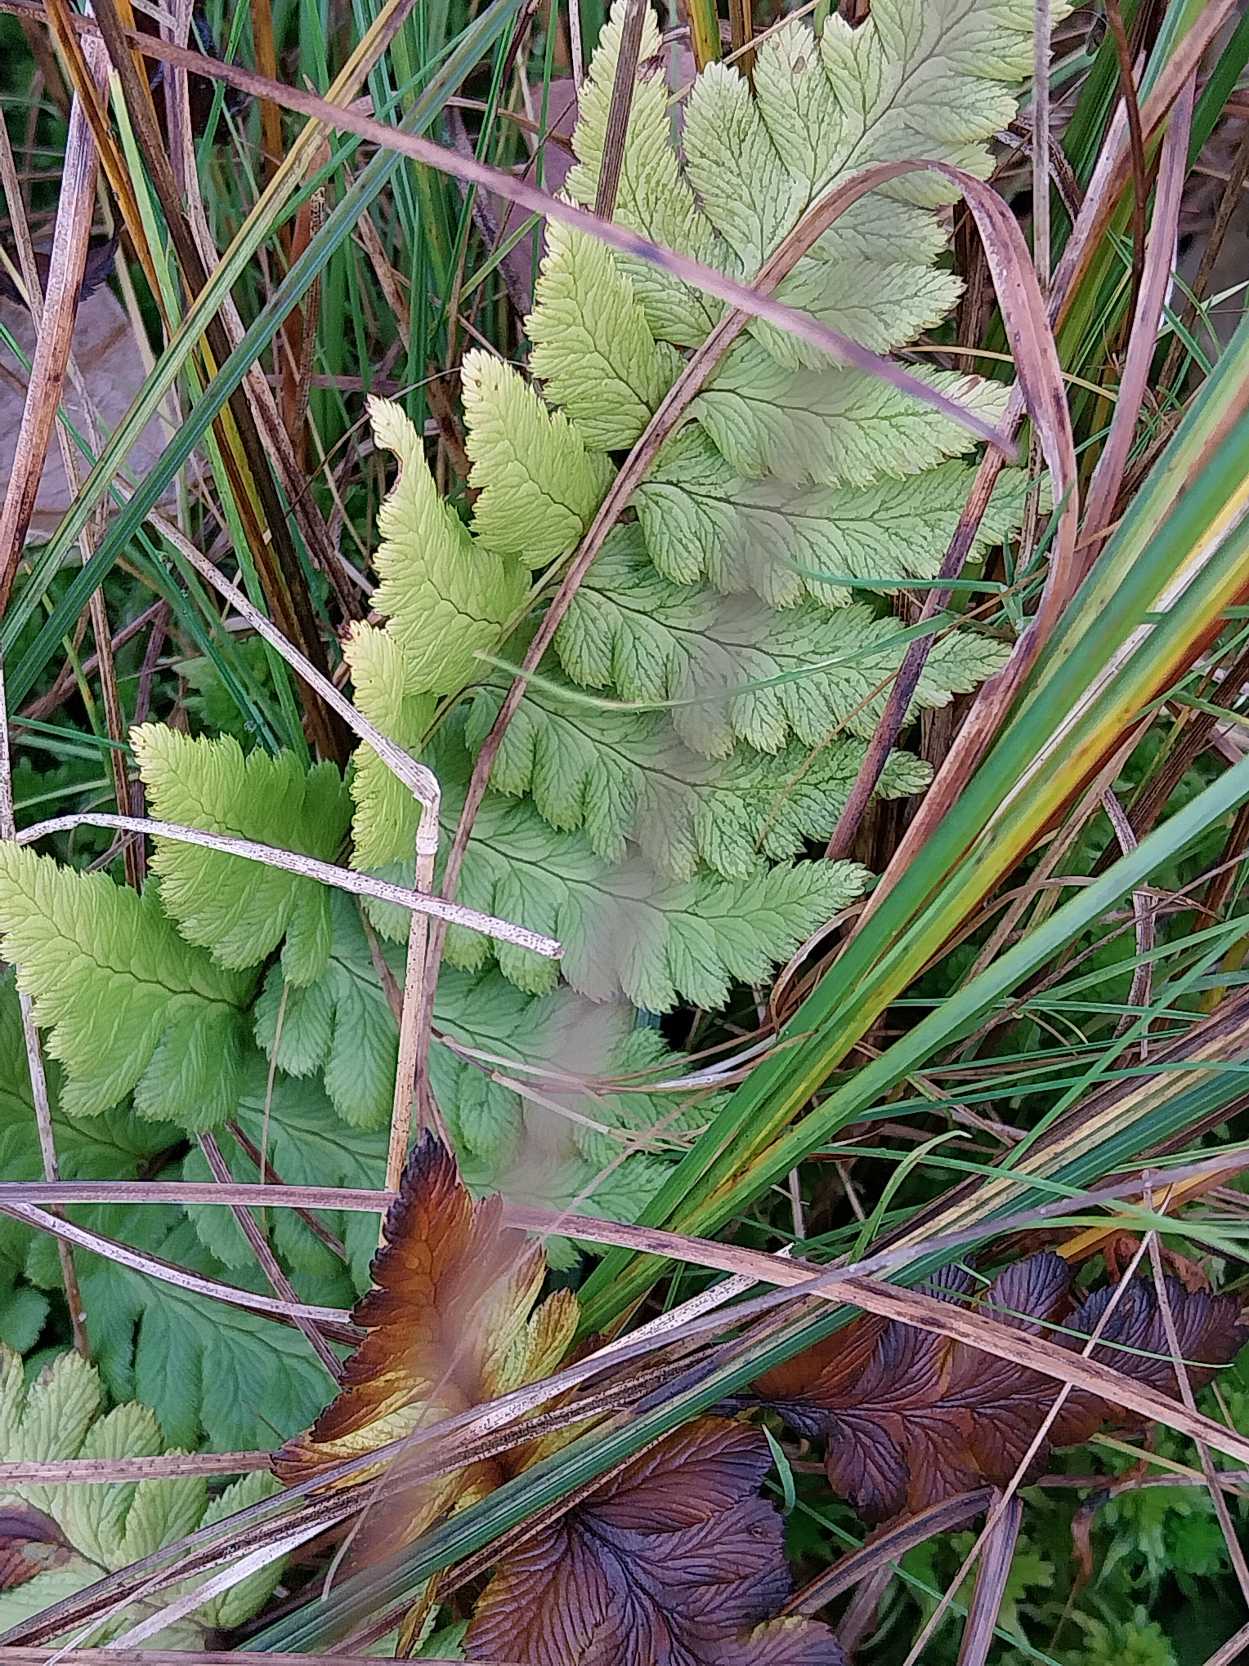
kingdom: Plantae
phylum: Tracheophyta
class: Polypodiopsida
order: Polypodiales
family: Dryopteridaceae
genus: Dryopteris
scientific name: Dryopteris cristata
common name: Butfinnet mangeløv
